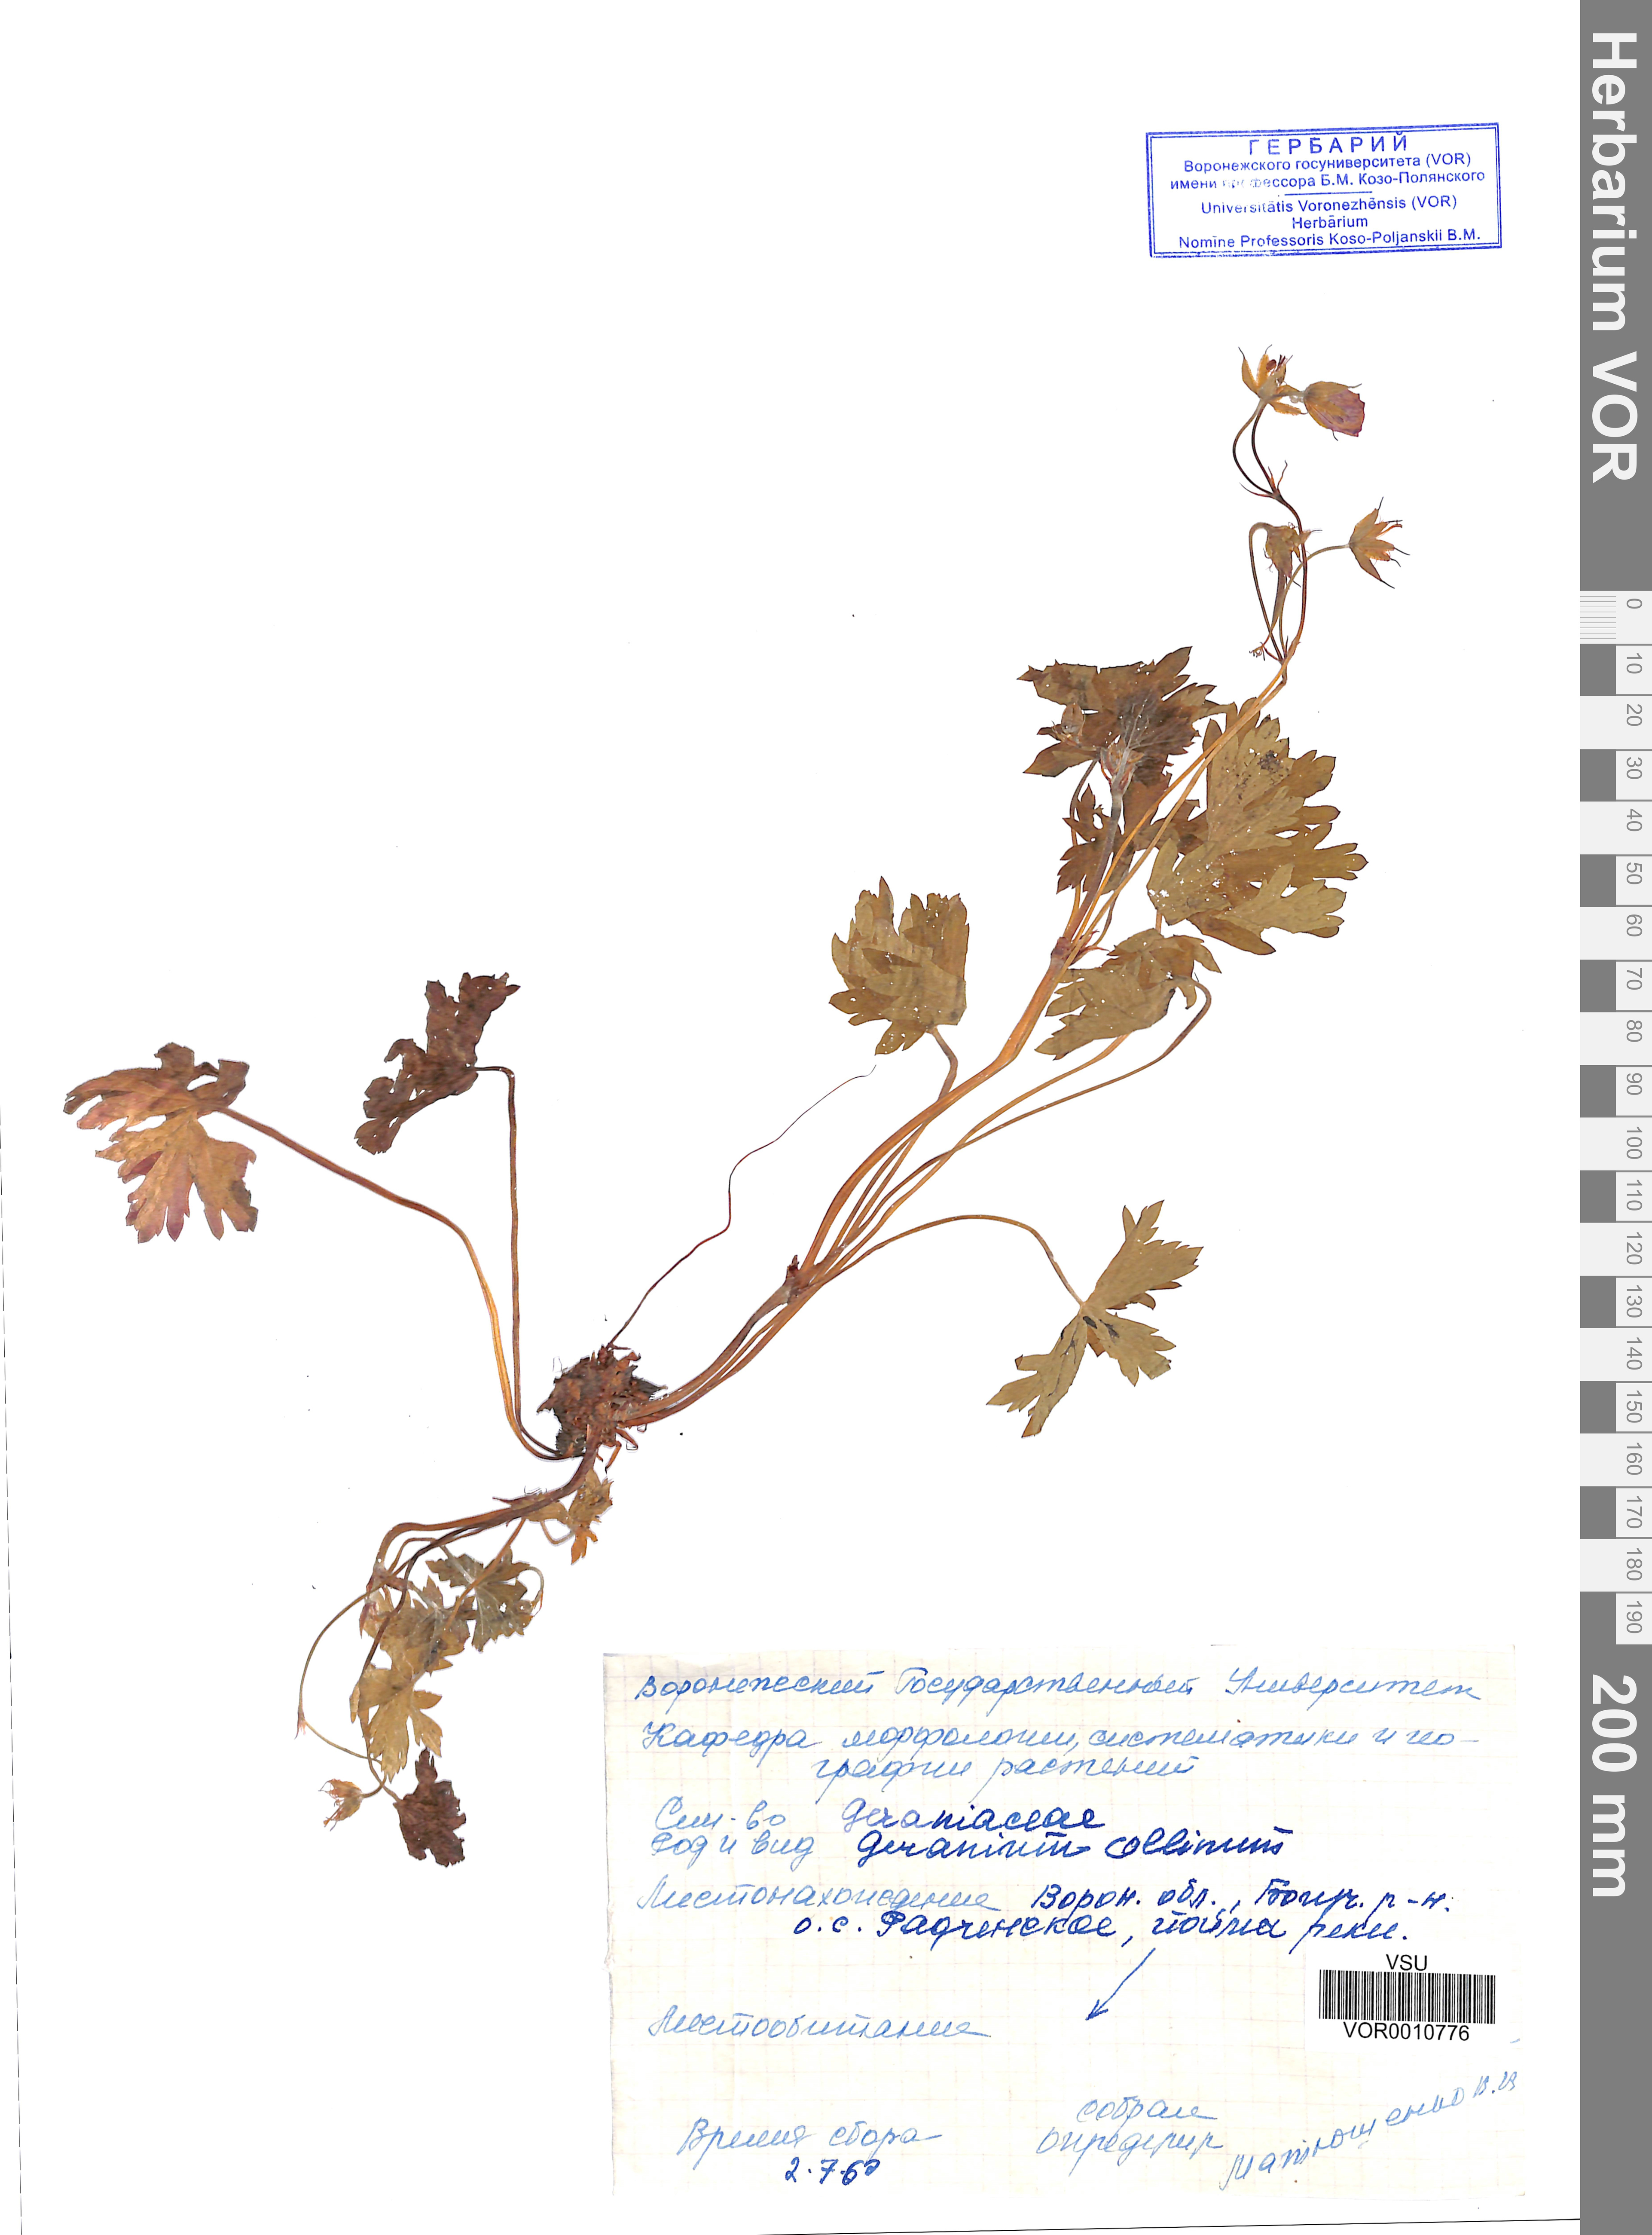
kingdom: Plantae
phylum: Tracheophyta
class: Magnoliopsida
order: Geraniales
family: Geraniaceae
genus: Geranium
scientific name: Geranium collinum
